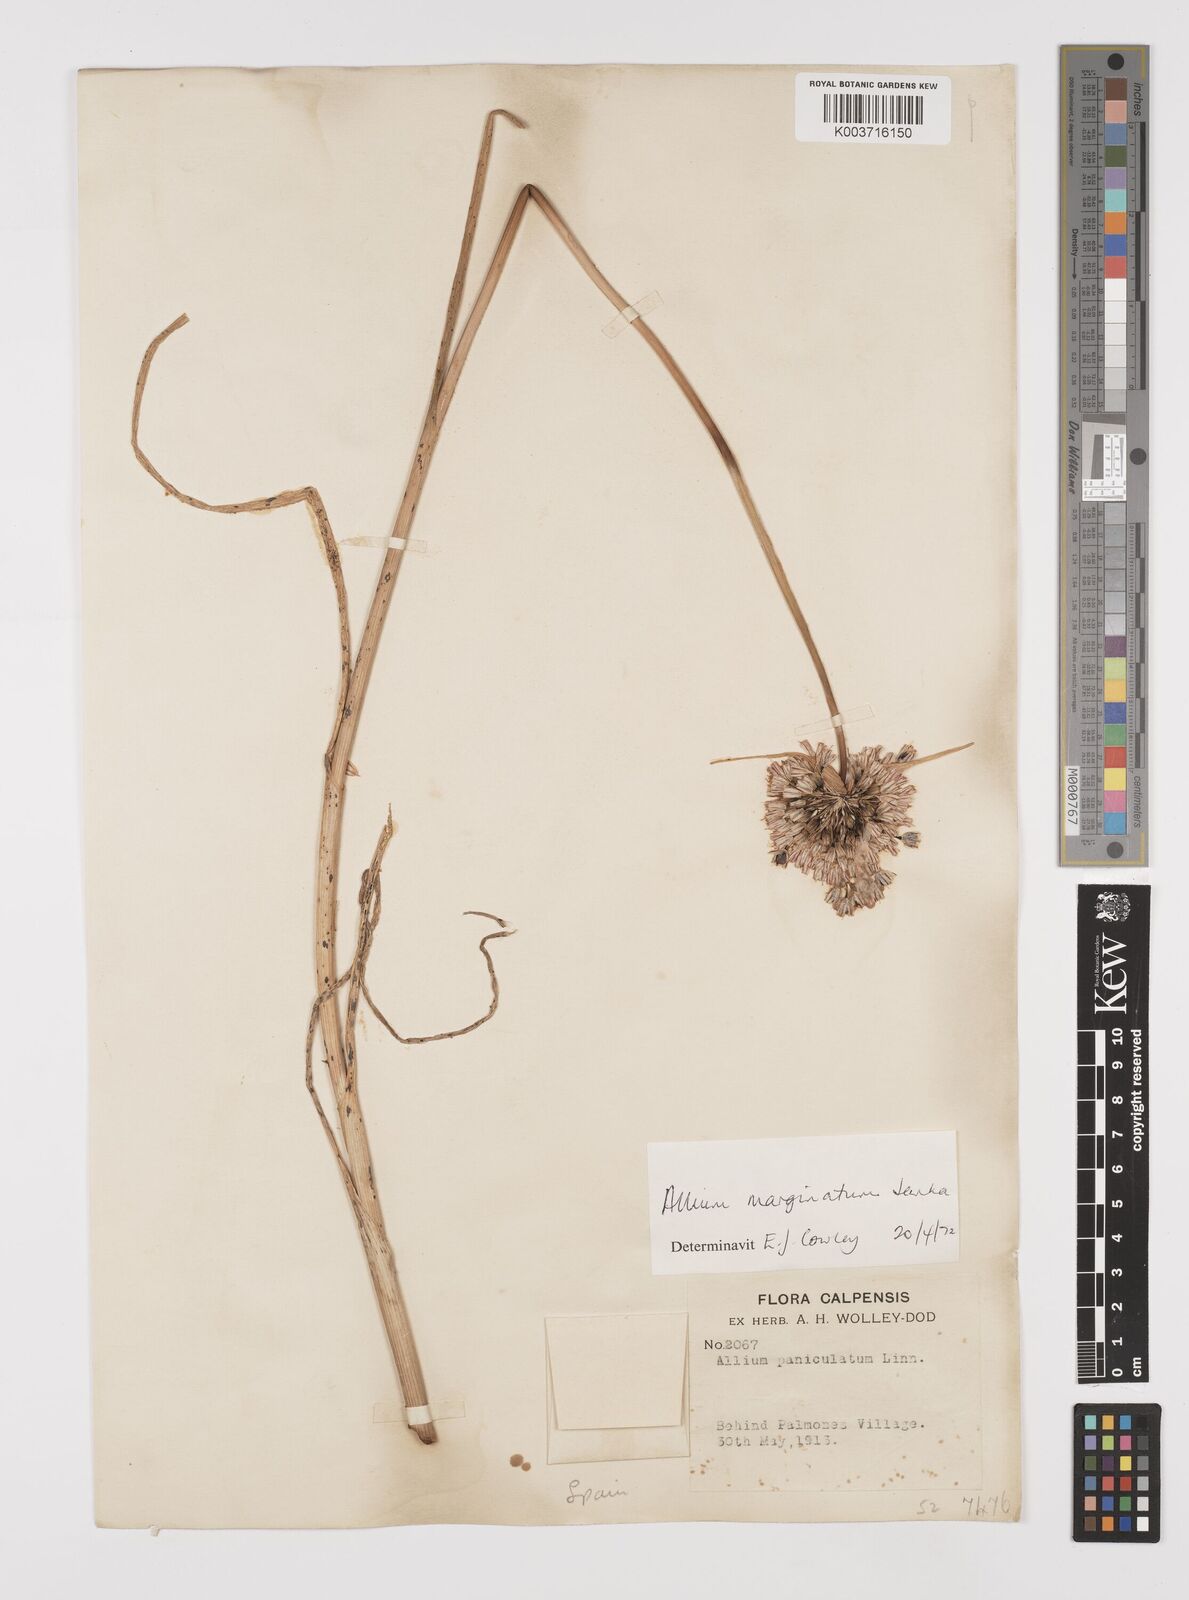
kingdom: Plantae
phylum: Tracheophyta
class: Liliopsida
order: Asparagales
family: Amaryllidaceae
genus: Allium
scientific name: Allium marginatum
